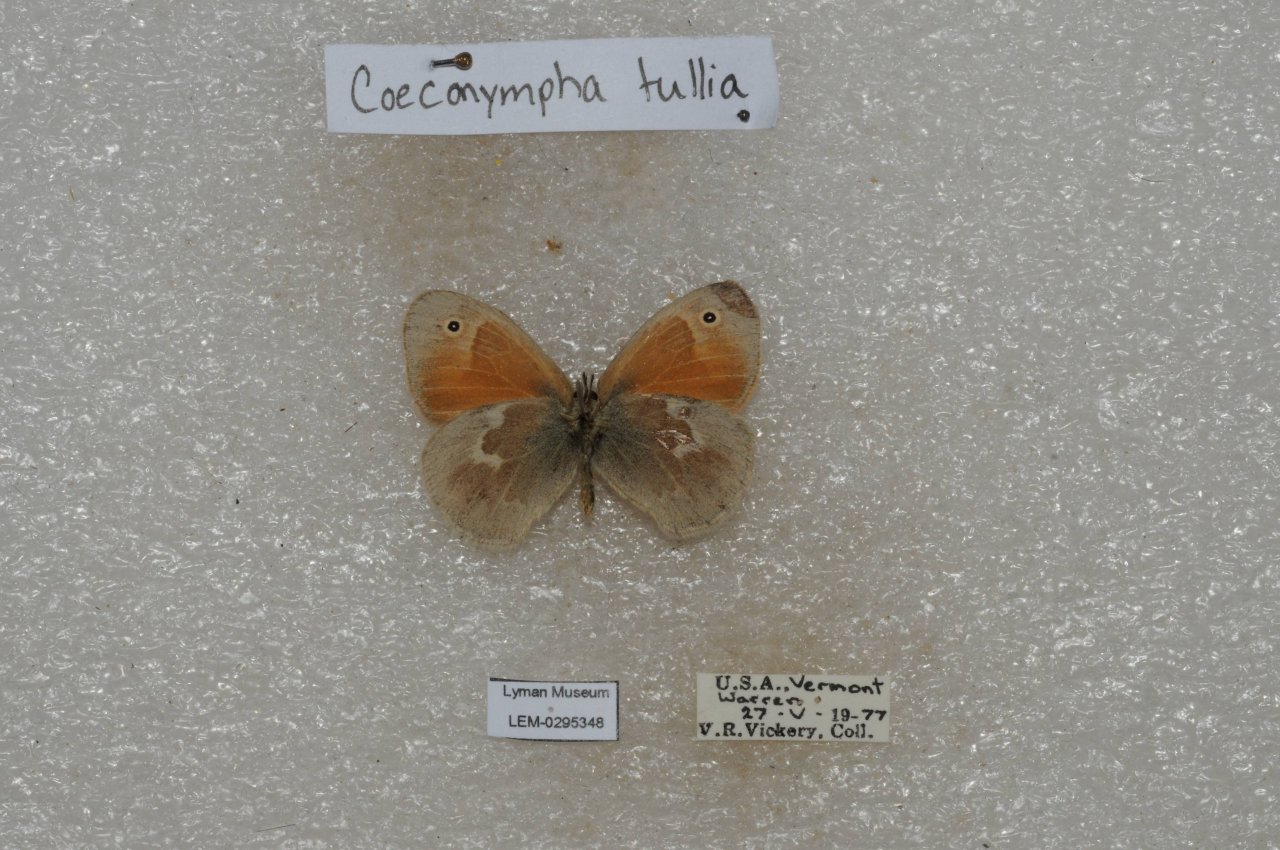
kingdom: Animalia
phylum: Arthropoda
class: Insecta
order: Lepidoptera
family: Nymphalidae
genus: Coenonympha
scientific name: Coenonympha tullia
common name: Large Heath
